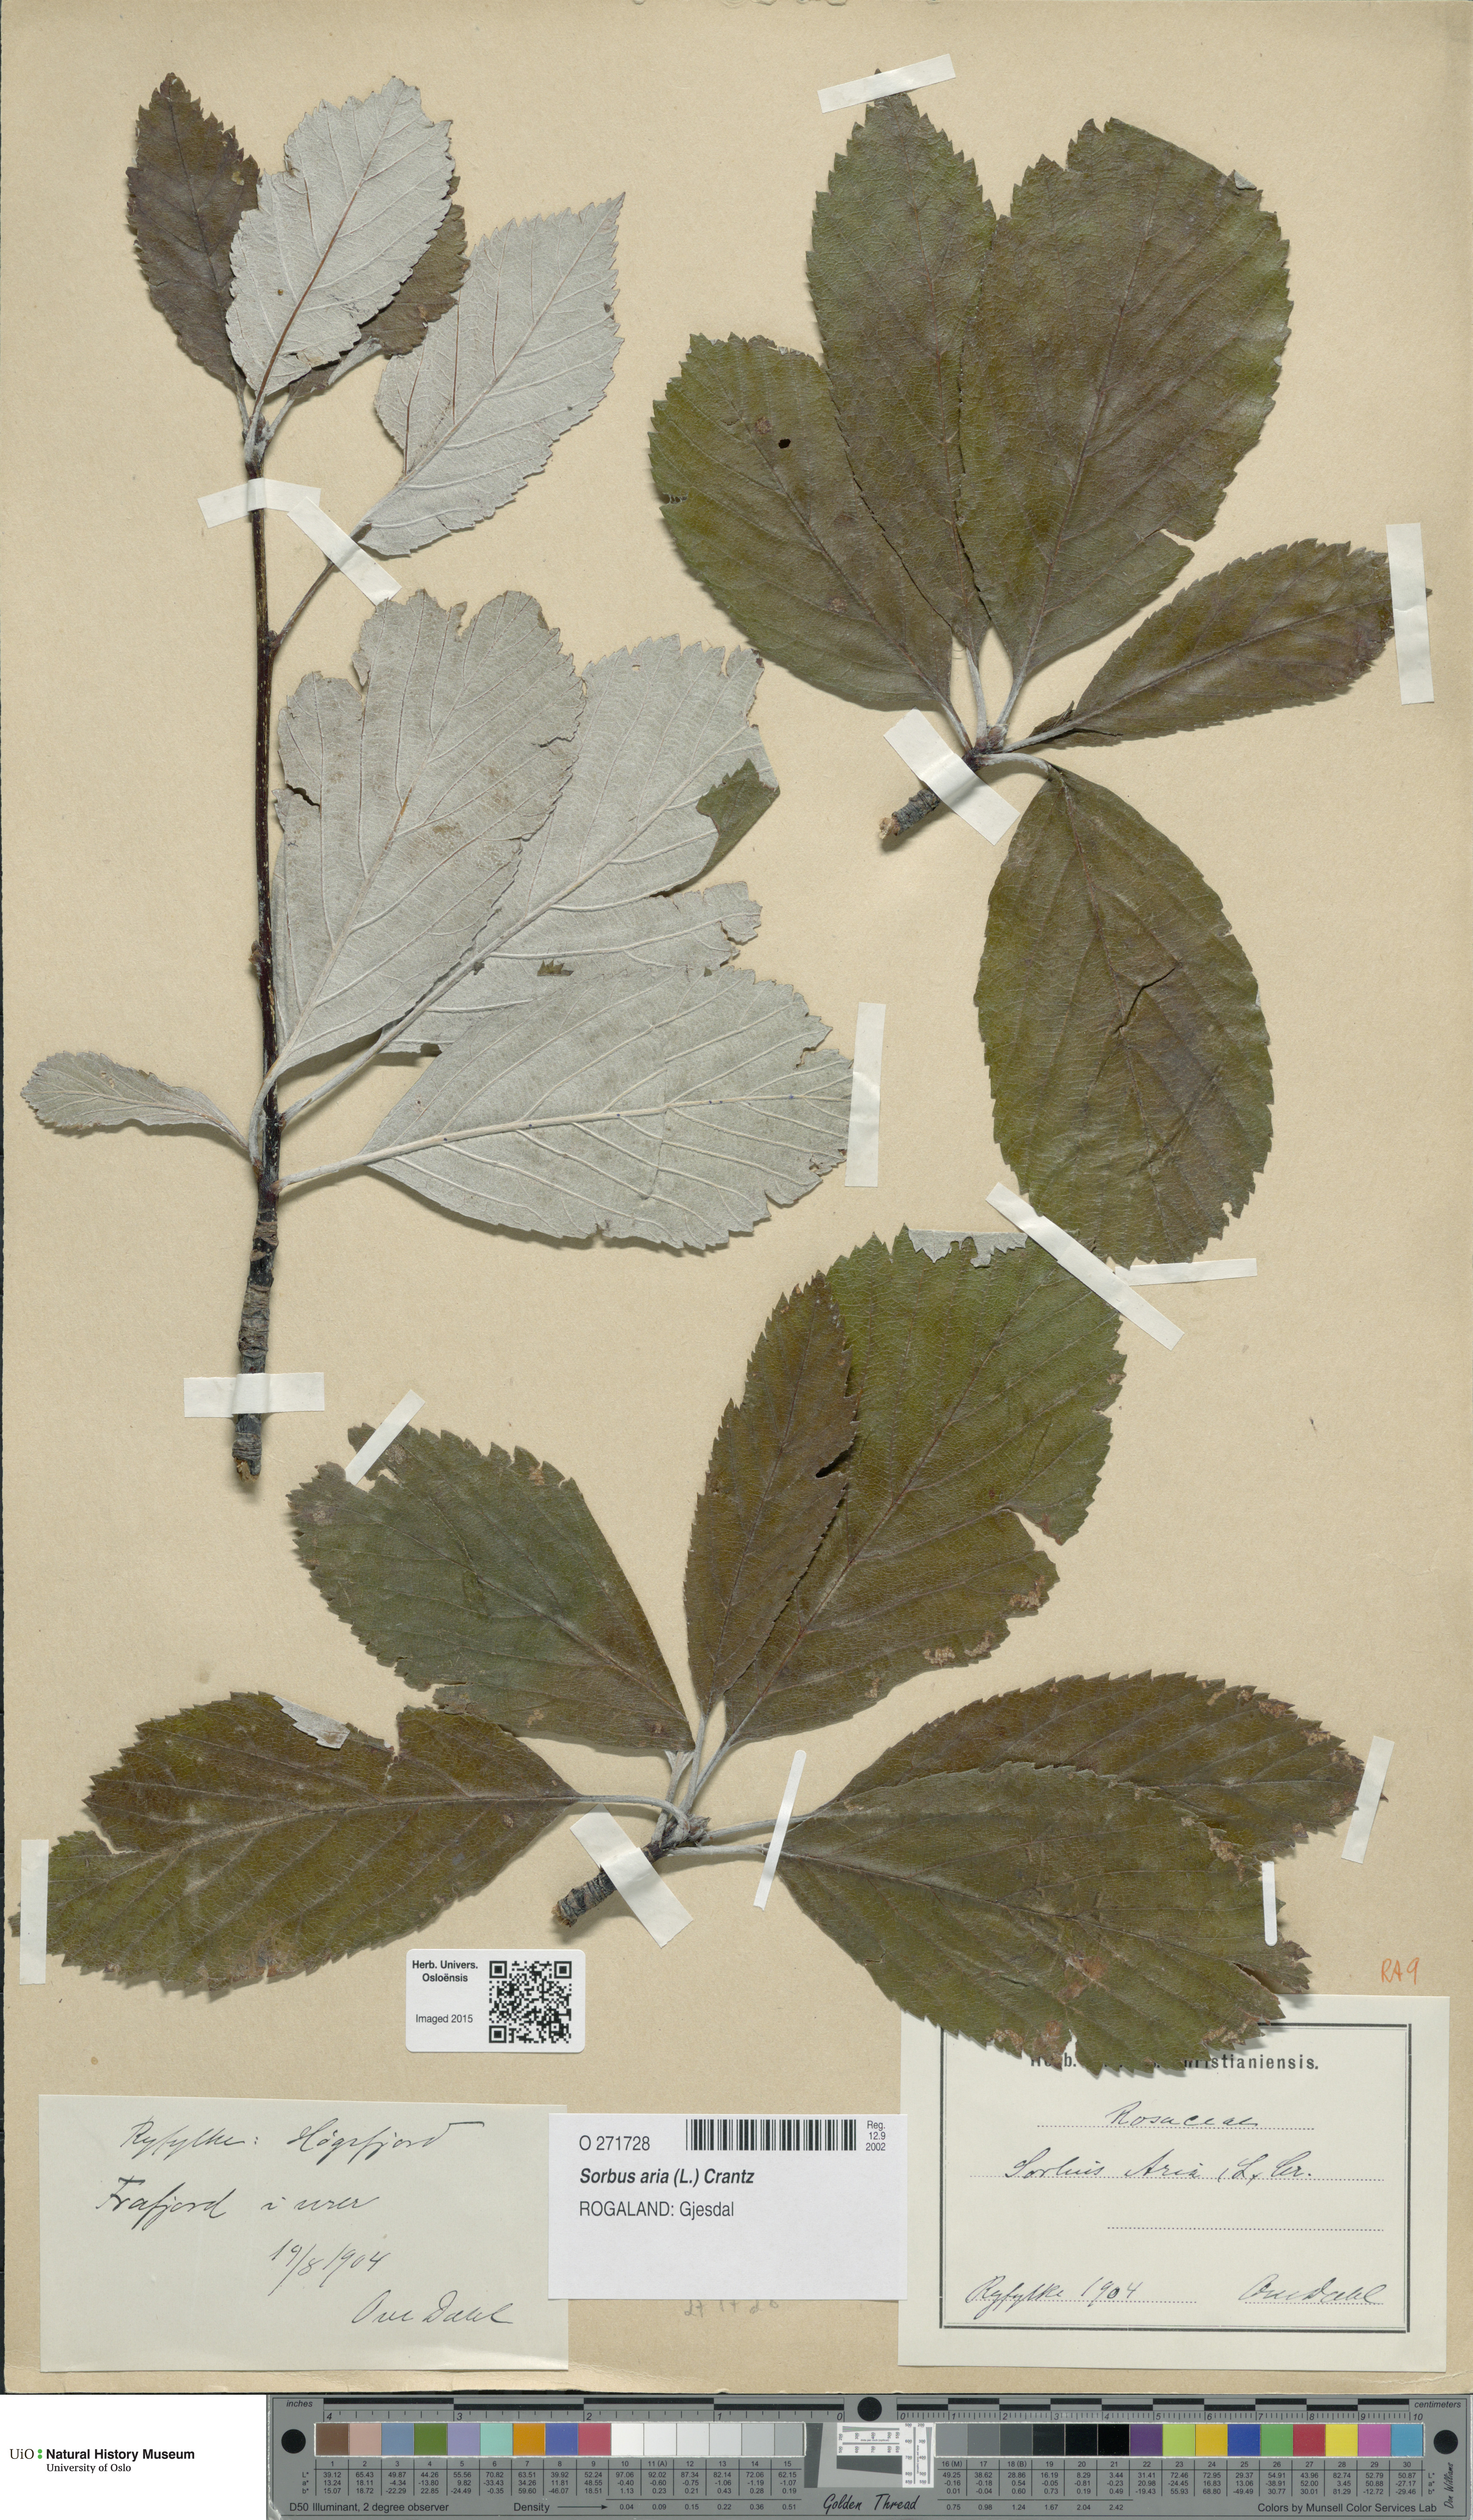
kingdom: Plantae
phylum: Tracheophyta
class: Magnoliopsida
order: Rosales
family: Rosaceae
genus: Aria
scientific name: Aria edulis
